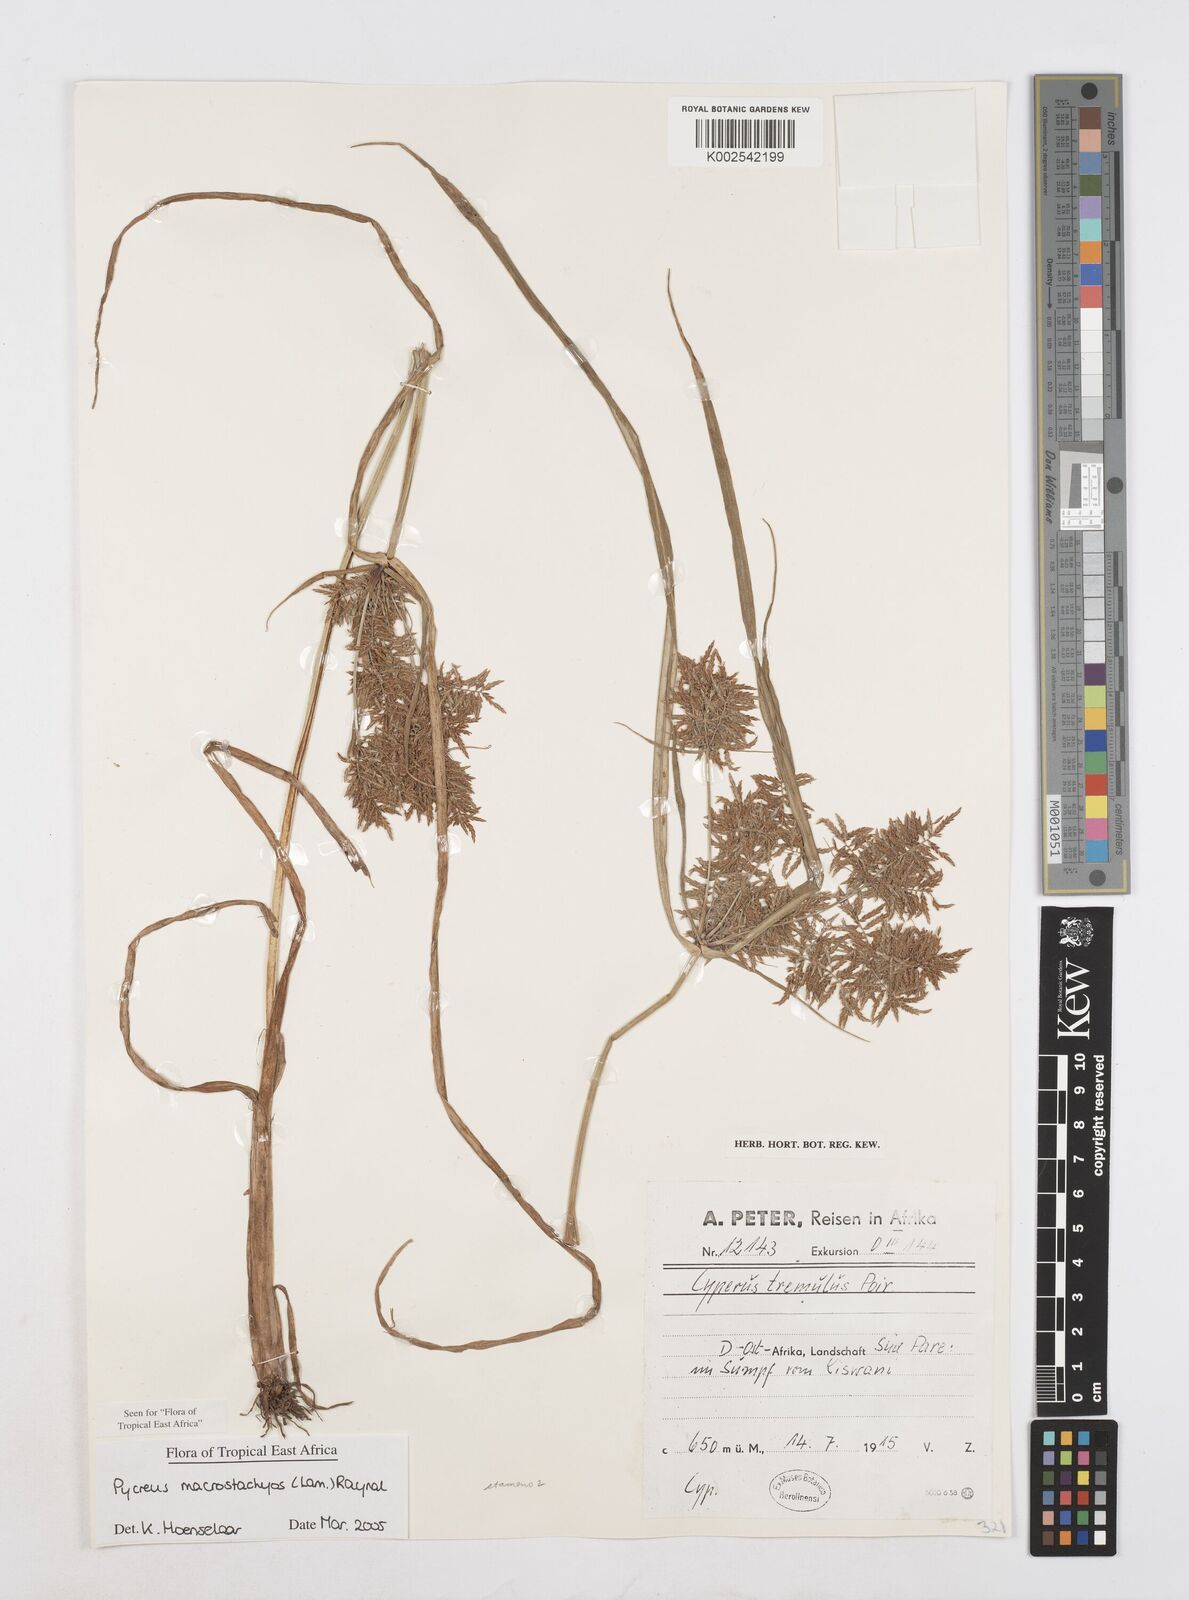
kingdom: Plantae
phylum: Tracheophyta
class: Liliopsida
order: Poales
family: Cyperaceae
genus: Cyperus
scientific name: Cyperus macrostachyos
